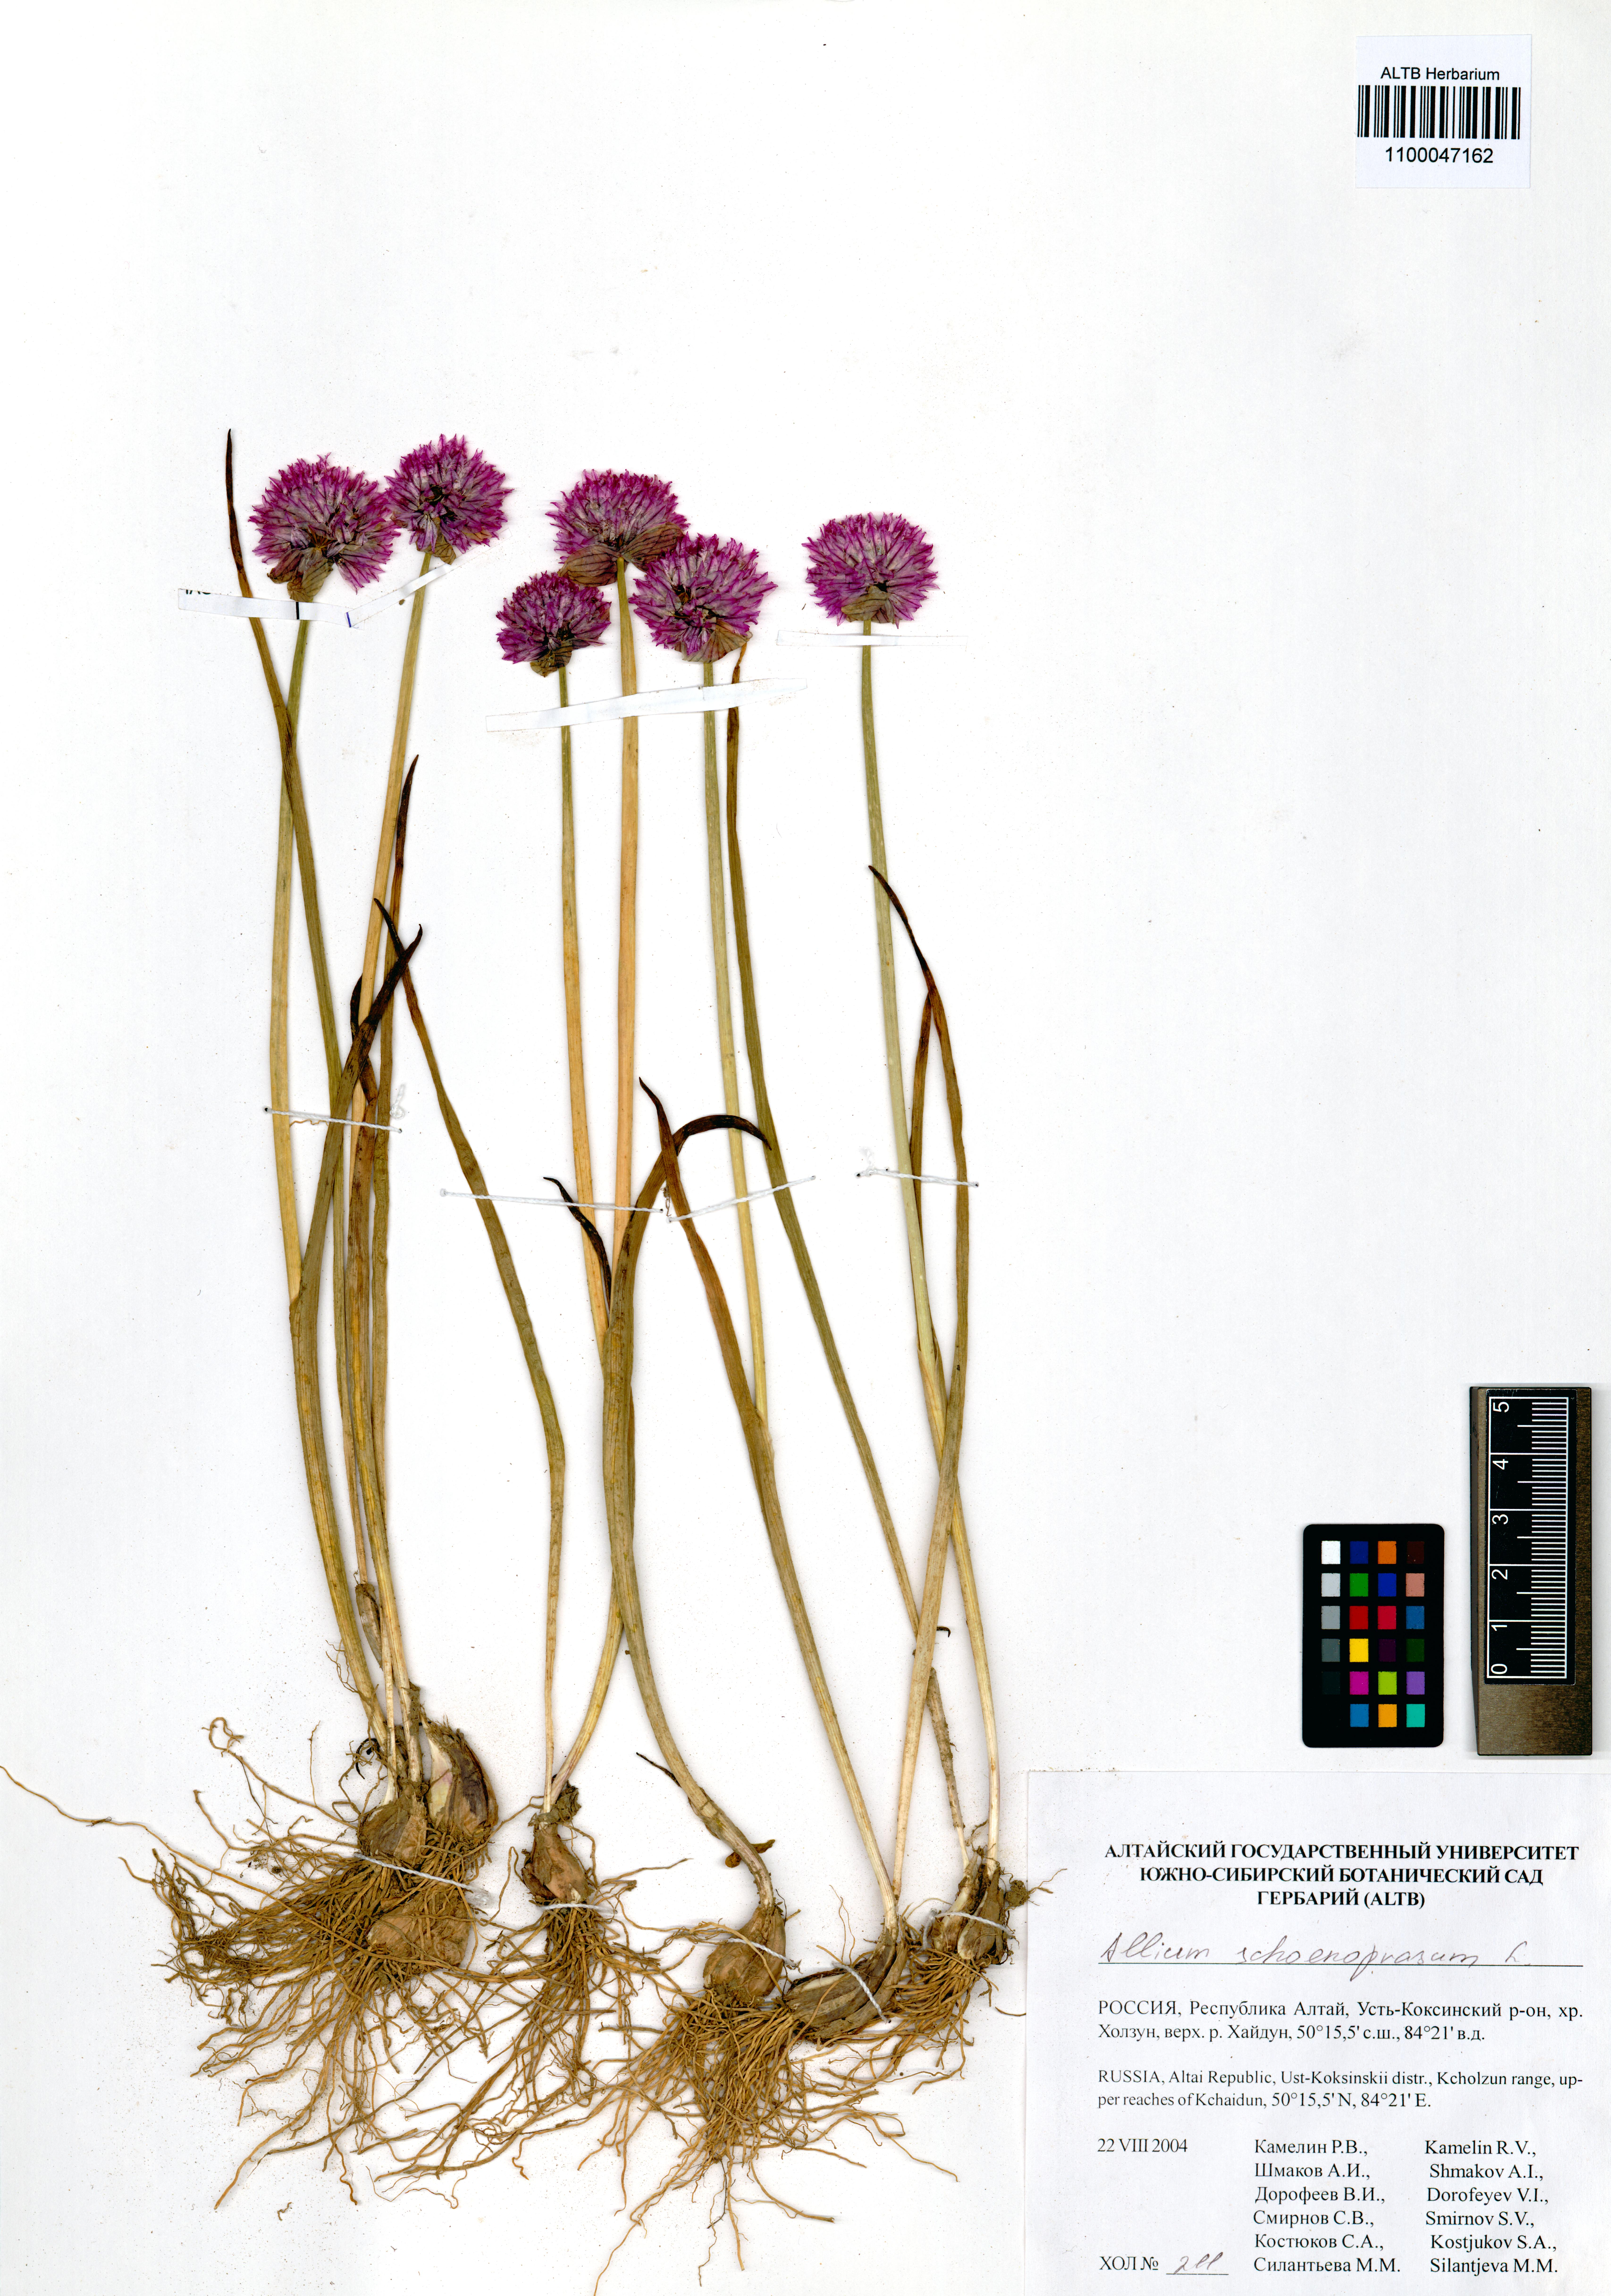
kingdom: Plantae
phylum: Tracheophyta
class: Liliopsida
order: Asparagales
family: Amaryllidaceae
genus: Allium
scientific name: Allium schoenoprasum
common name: Chives
